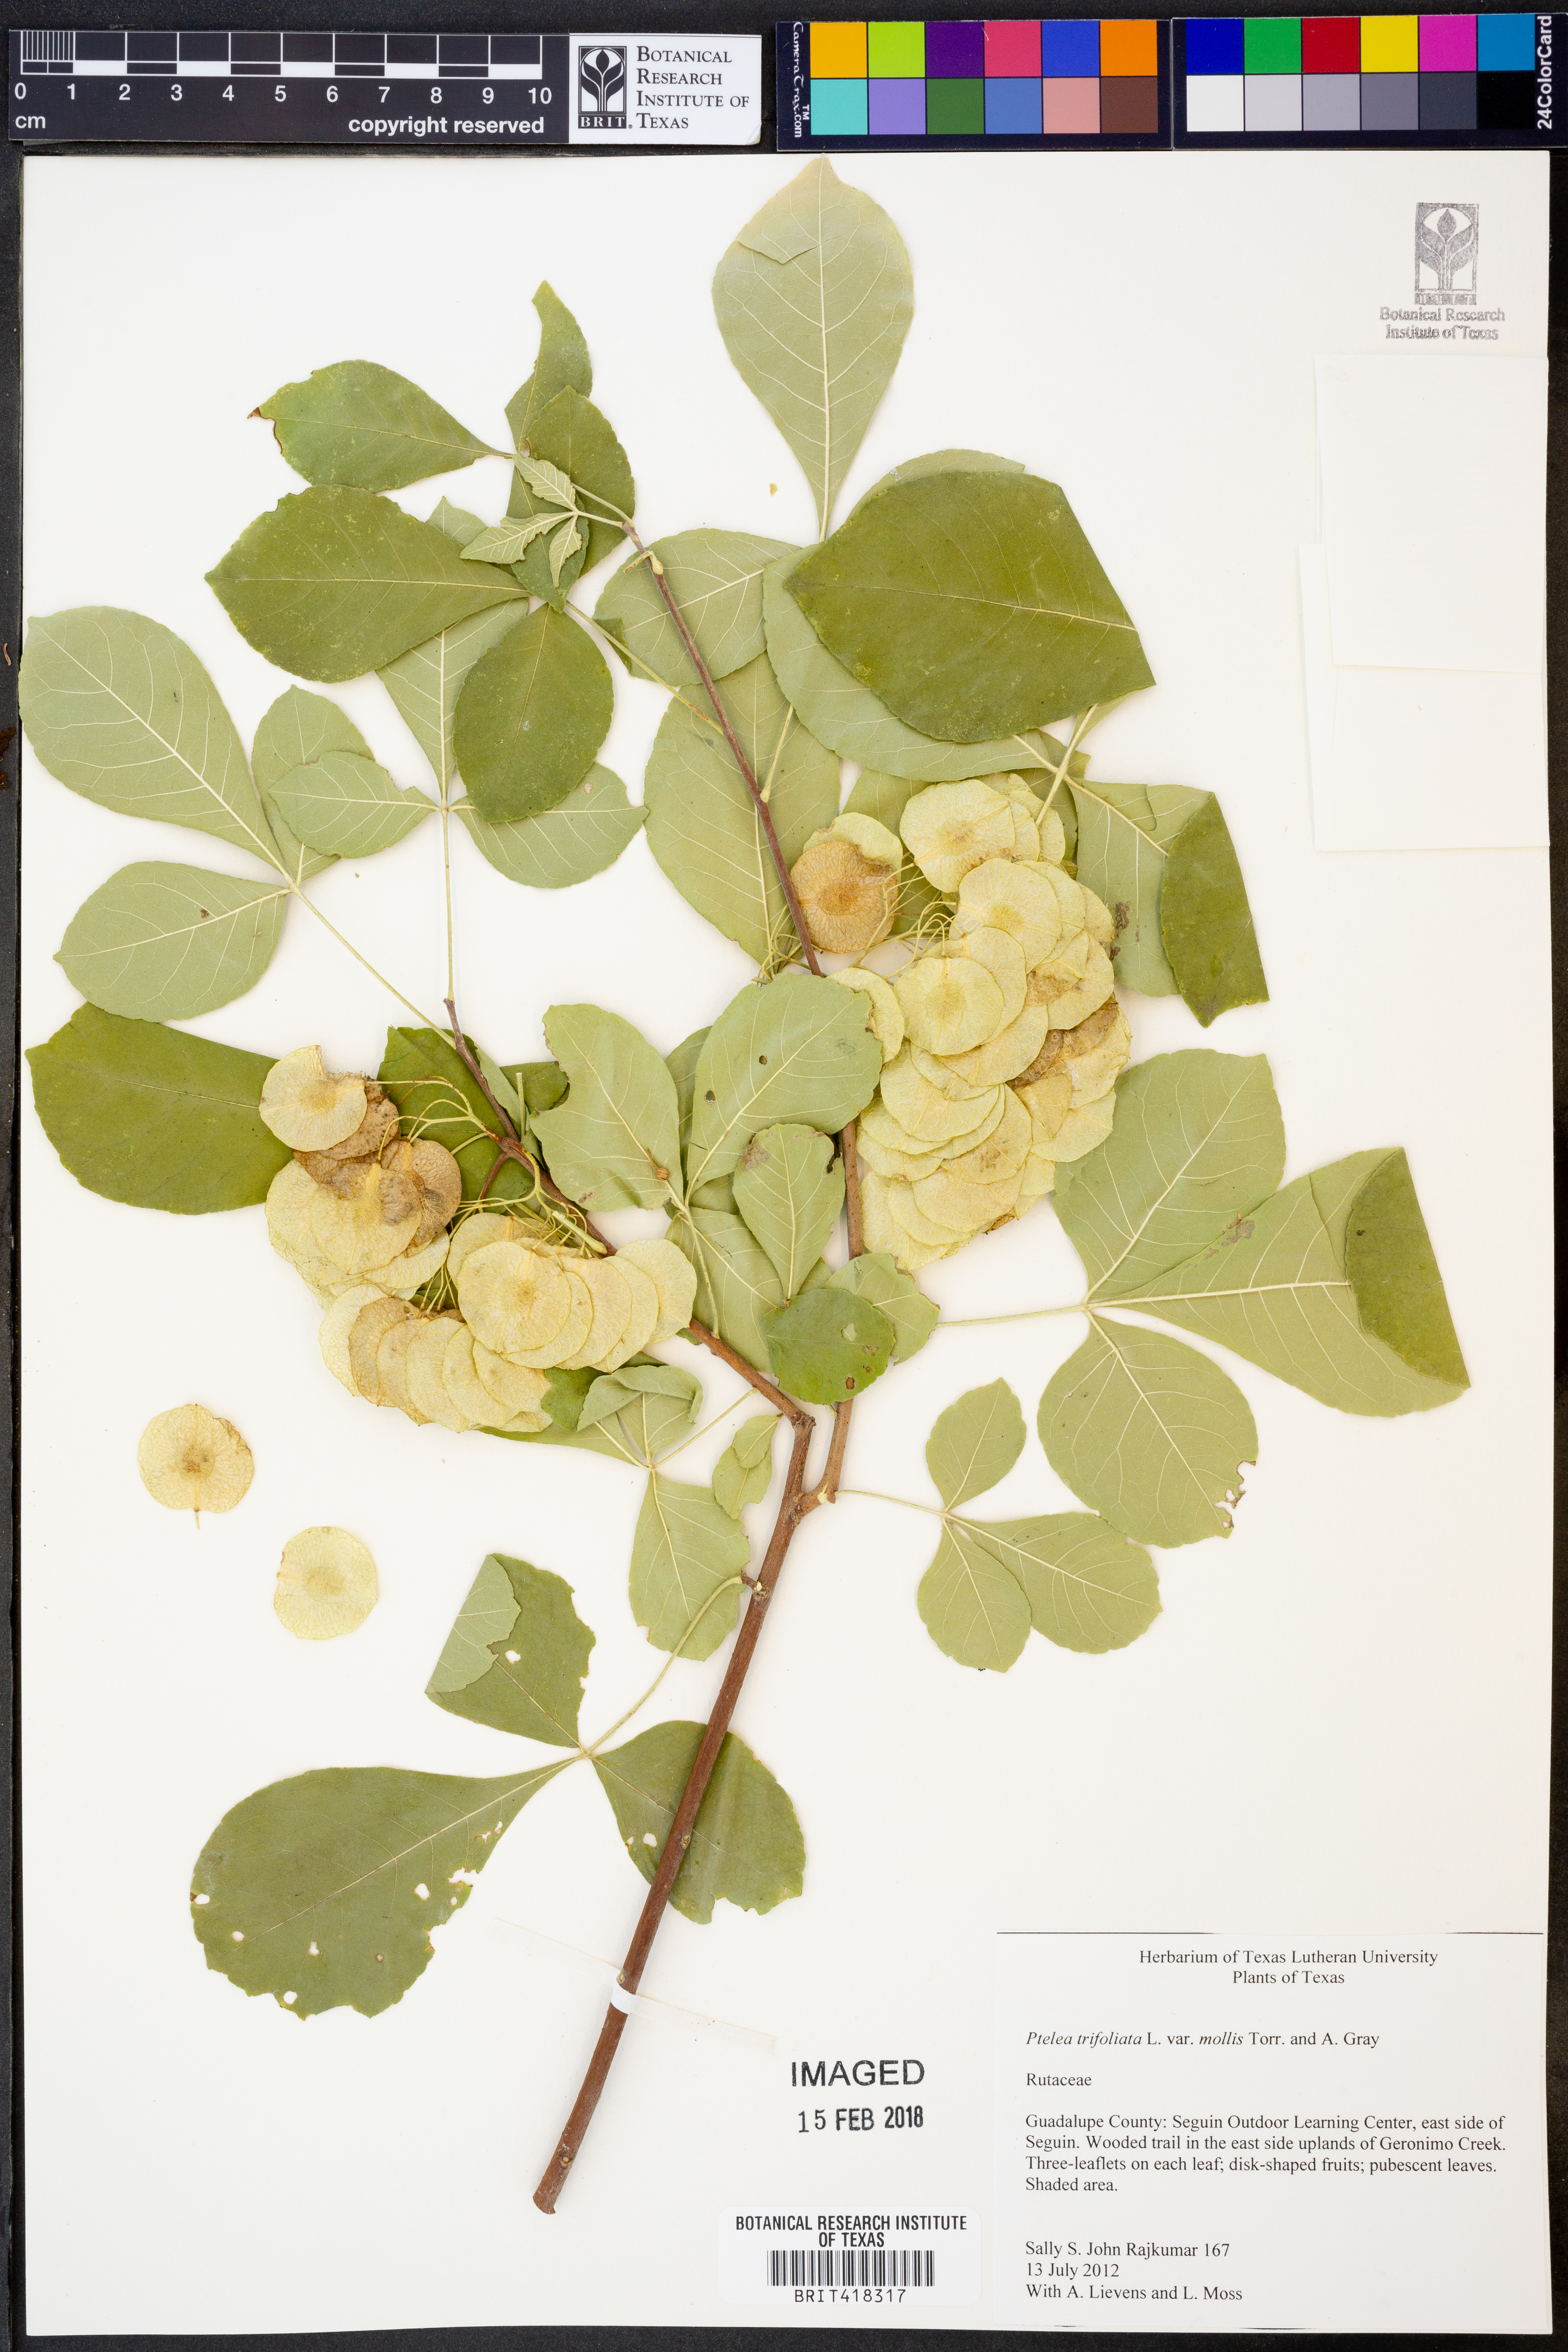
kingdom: Plantae
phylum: Tracheophyta
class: Magnoliopsida
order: Sapindales
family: Rutaceae
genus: Ptelea
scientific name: Ptelea trifoliata
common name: Common hop-tree
